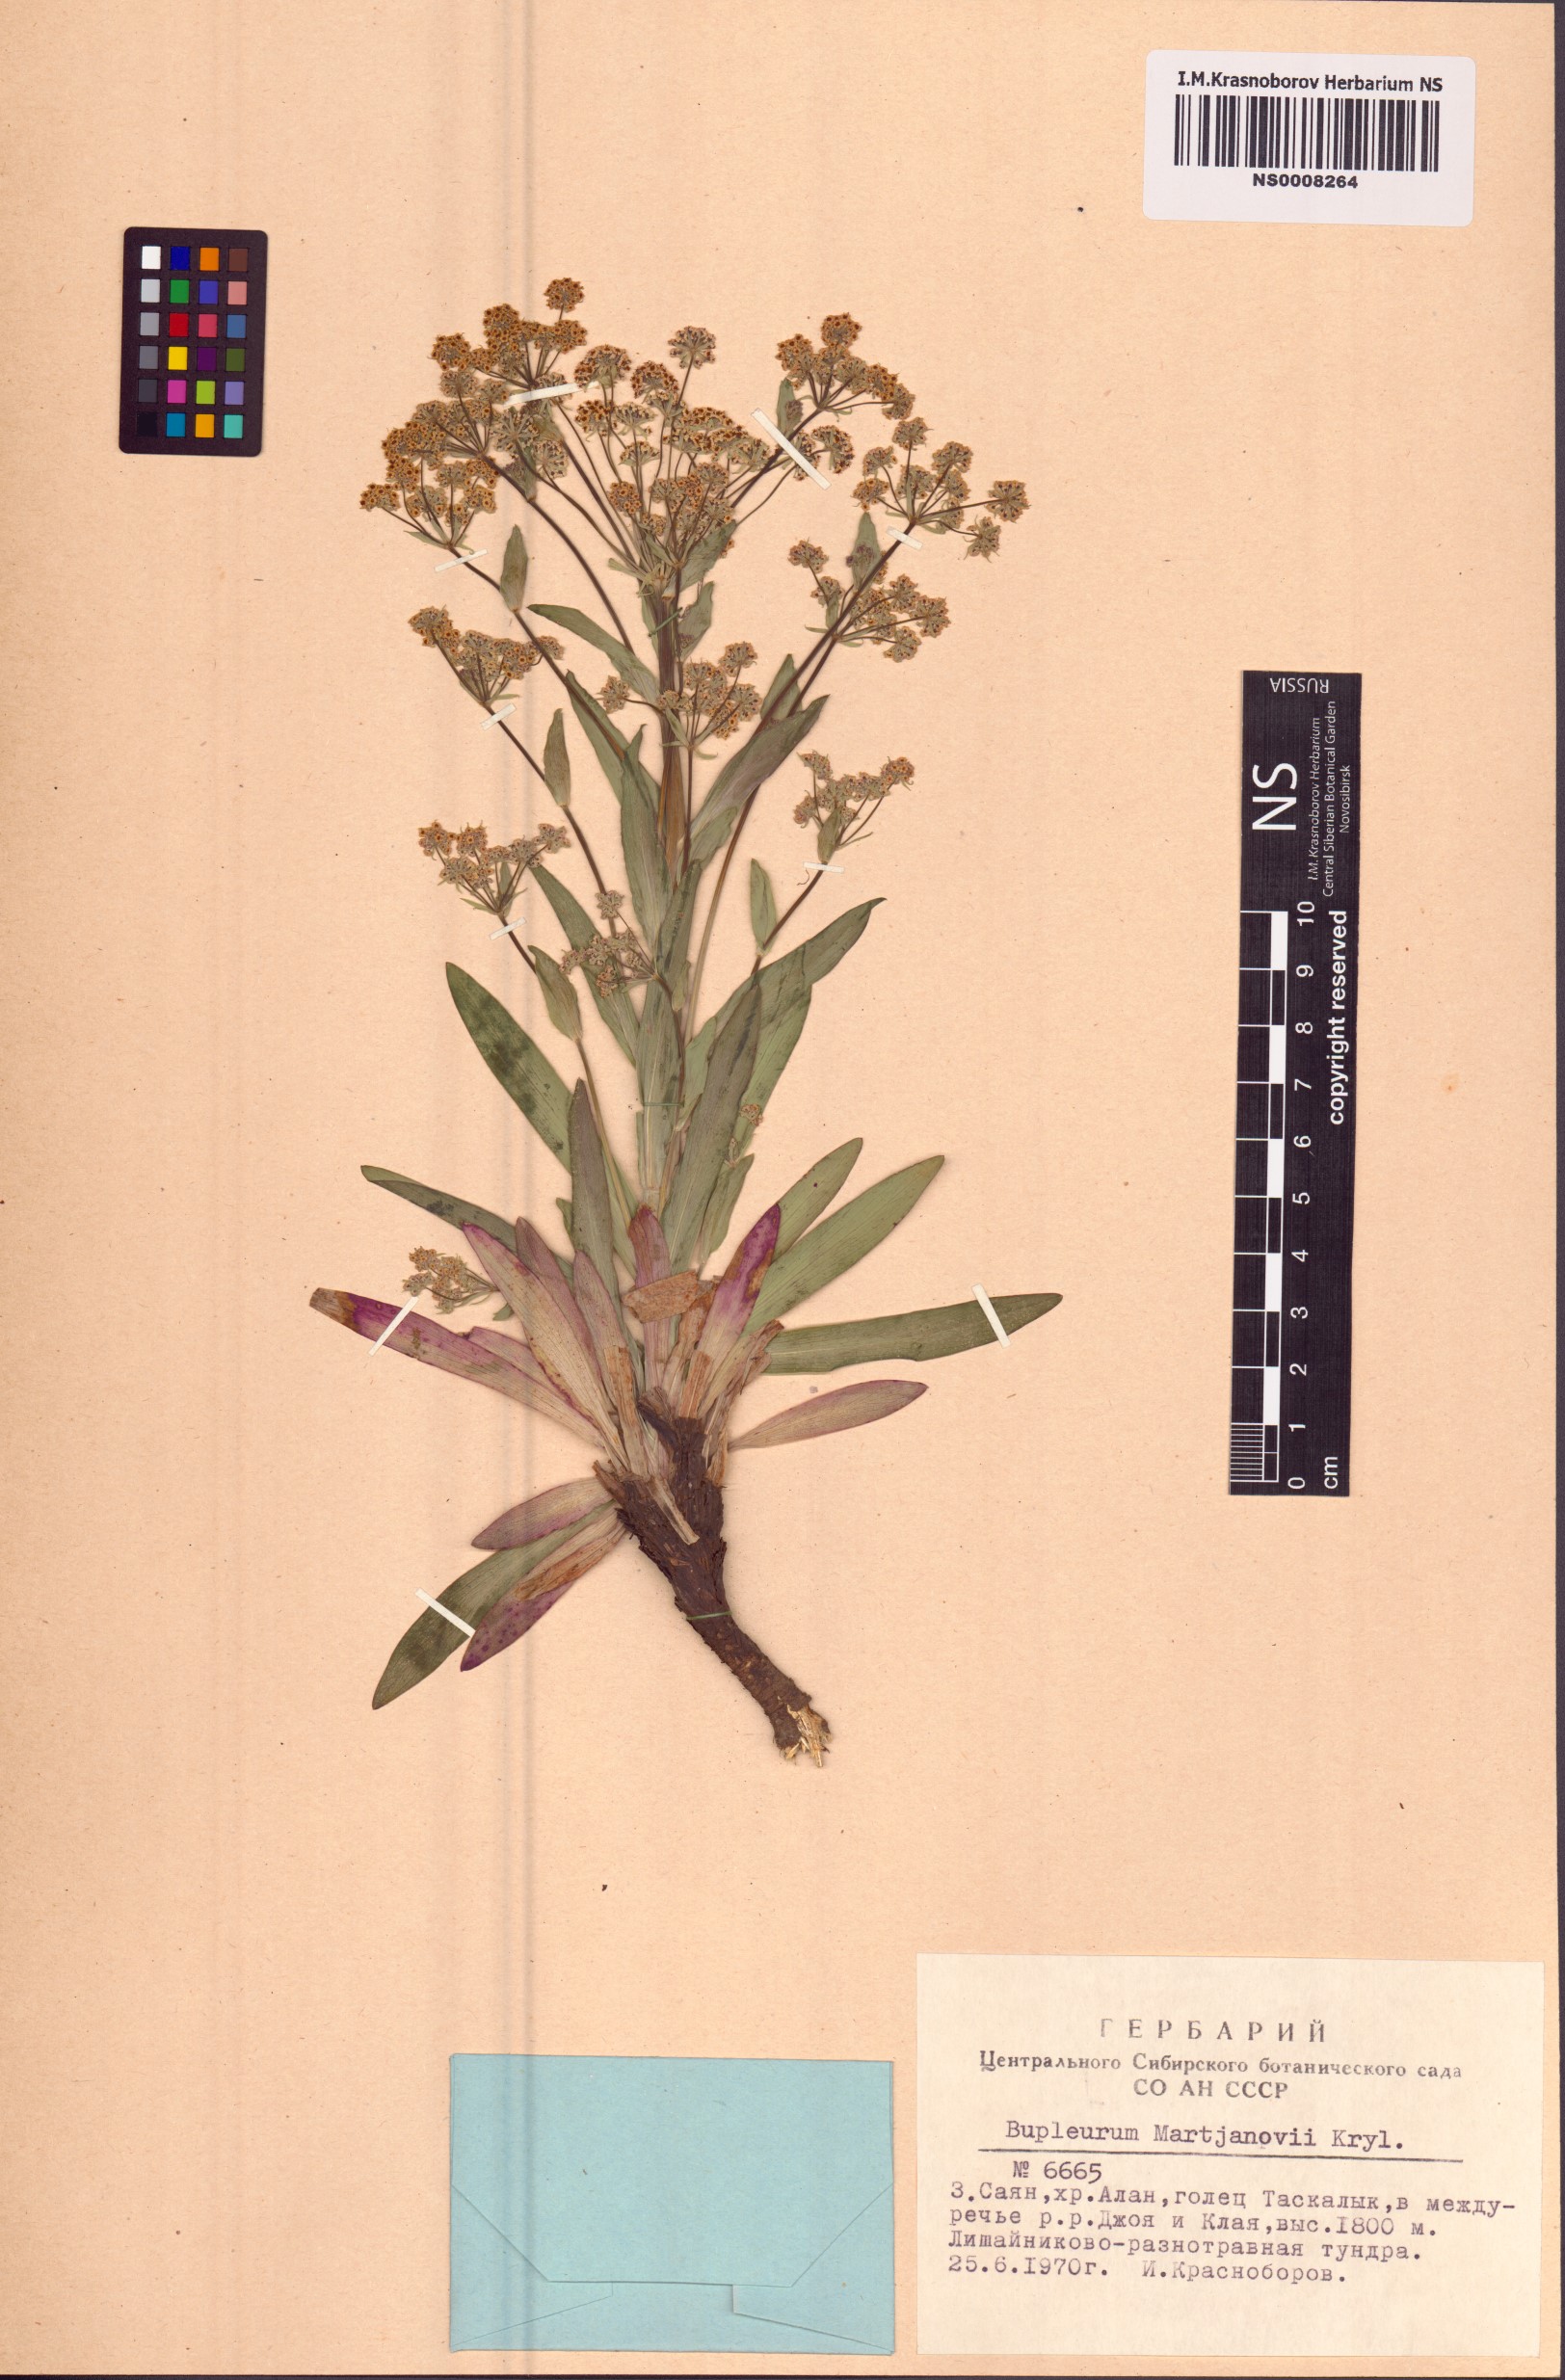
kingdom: Plantae
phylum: Tracheophyta
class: Magnoliopsida
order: Apiales
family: Apiaceae
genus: Bupleurum
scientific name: Bupleurum martjanovii
